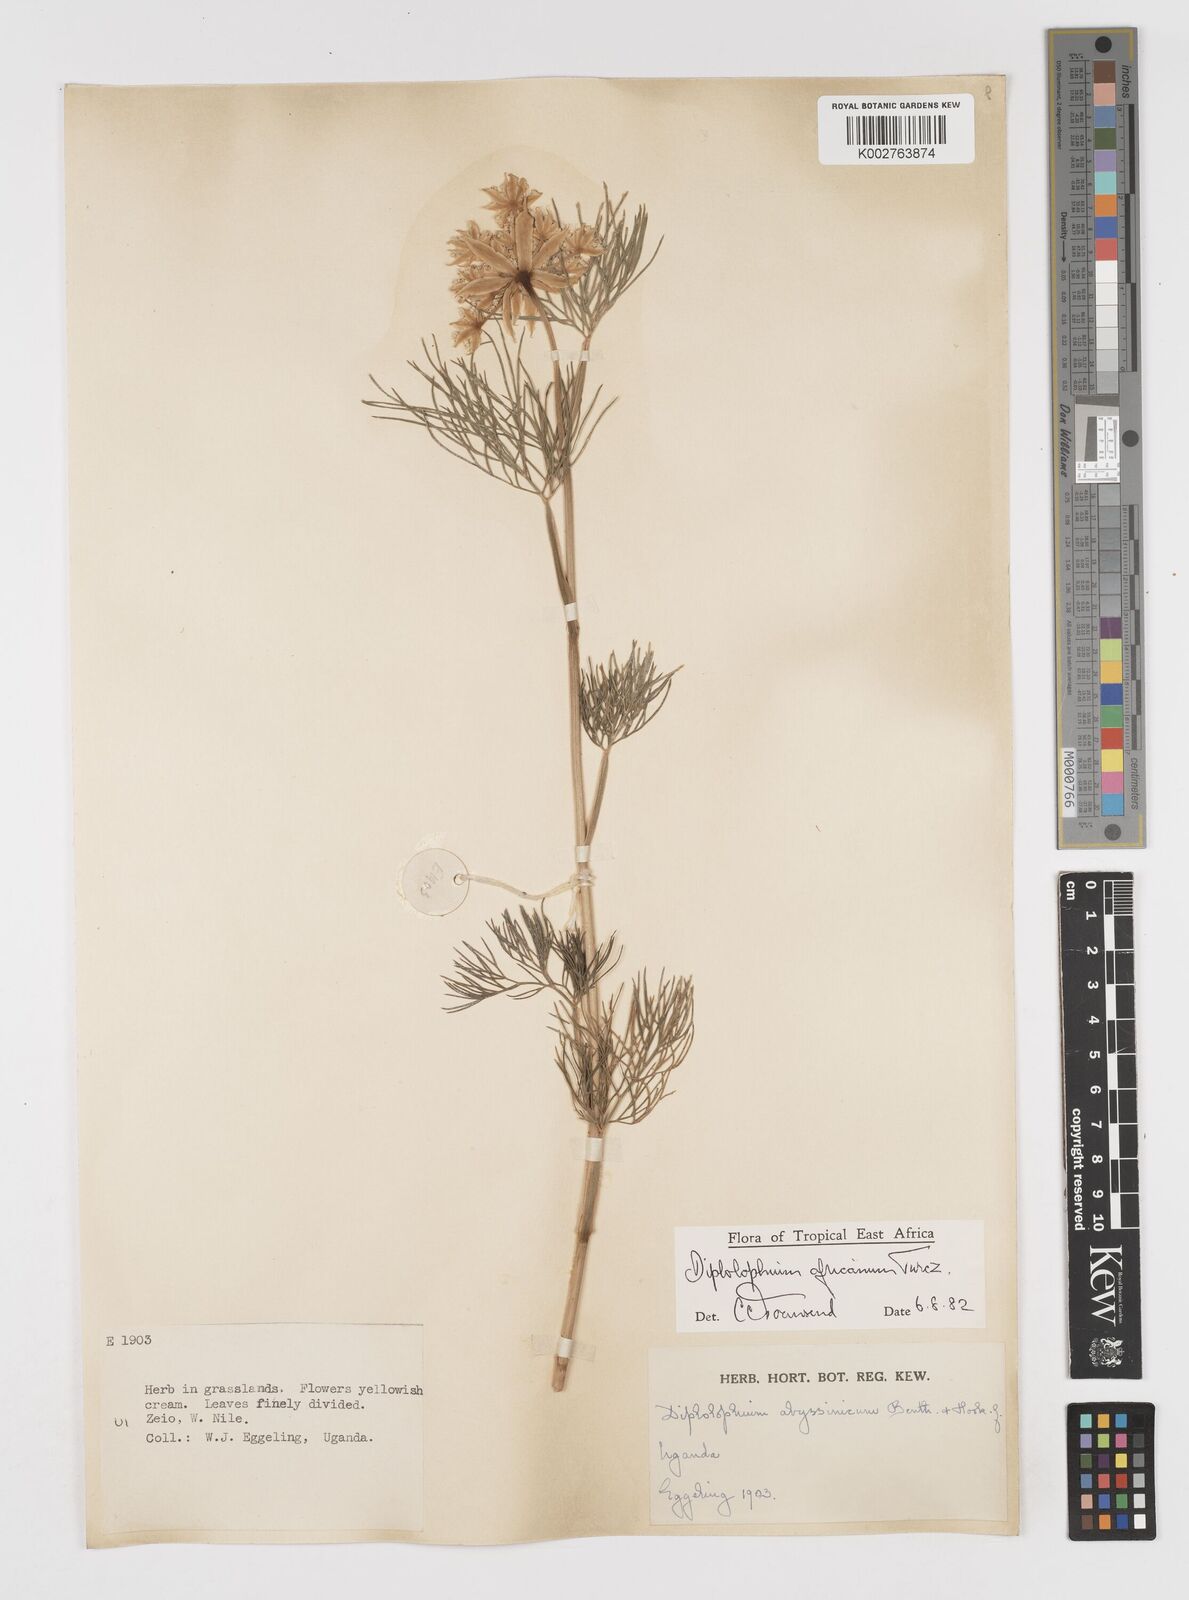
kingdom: Plantae
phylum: Tracheophyta
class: Magnoliopsida
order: Apiales
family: Apiaceae
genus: Diplolophium
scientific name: Diplolophium africanum
